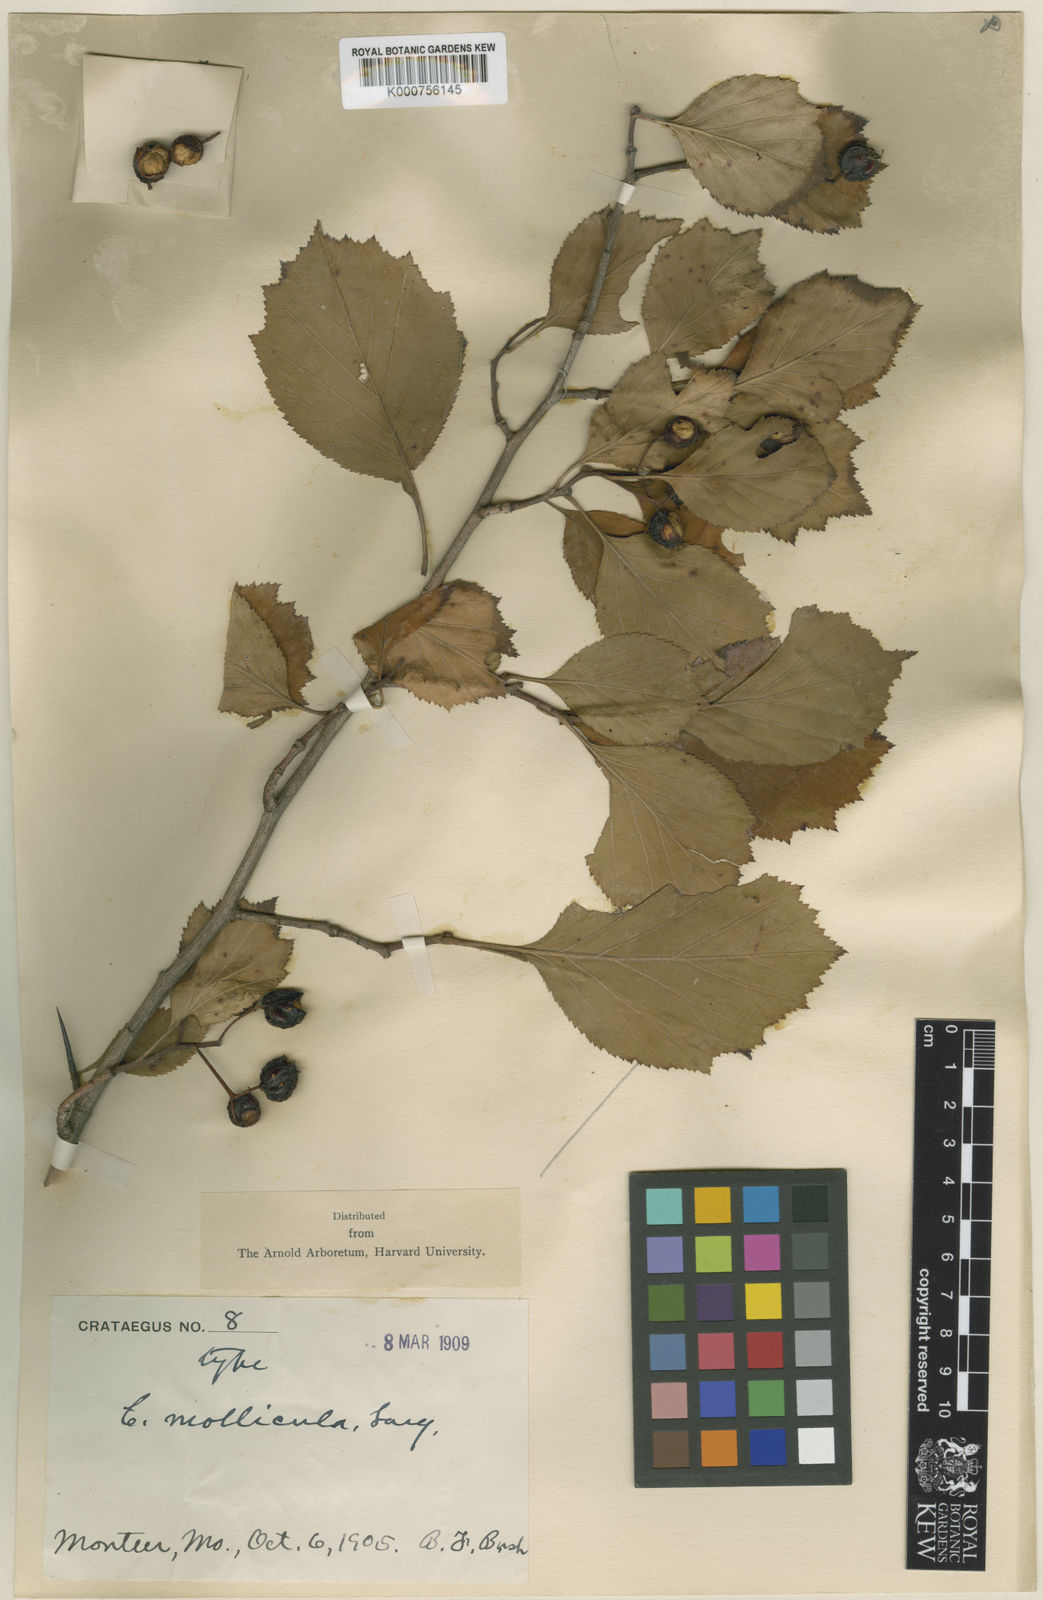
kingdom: Plantae
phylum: Tracheophyta
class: Magnoliopsida
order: Rosales
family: Rosaceae
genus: Crataegus
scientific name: Crataegus calpodendron
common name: Pear hawthorn
